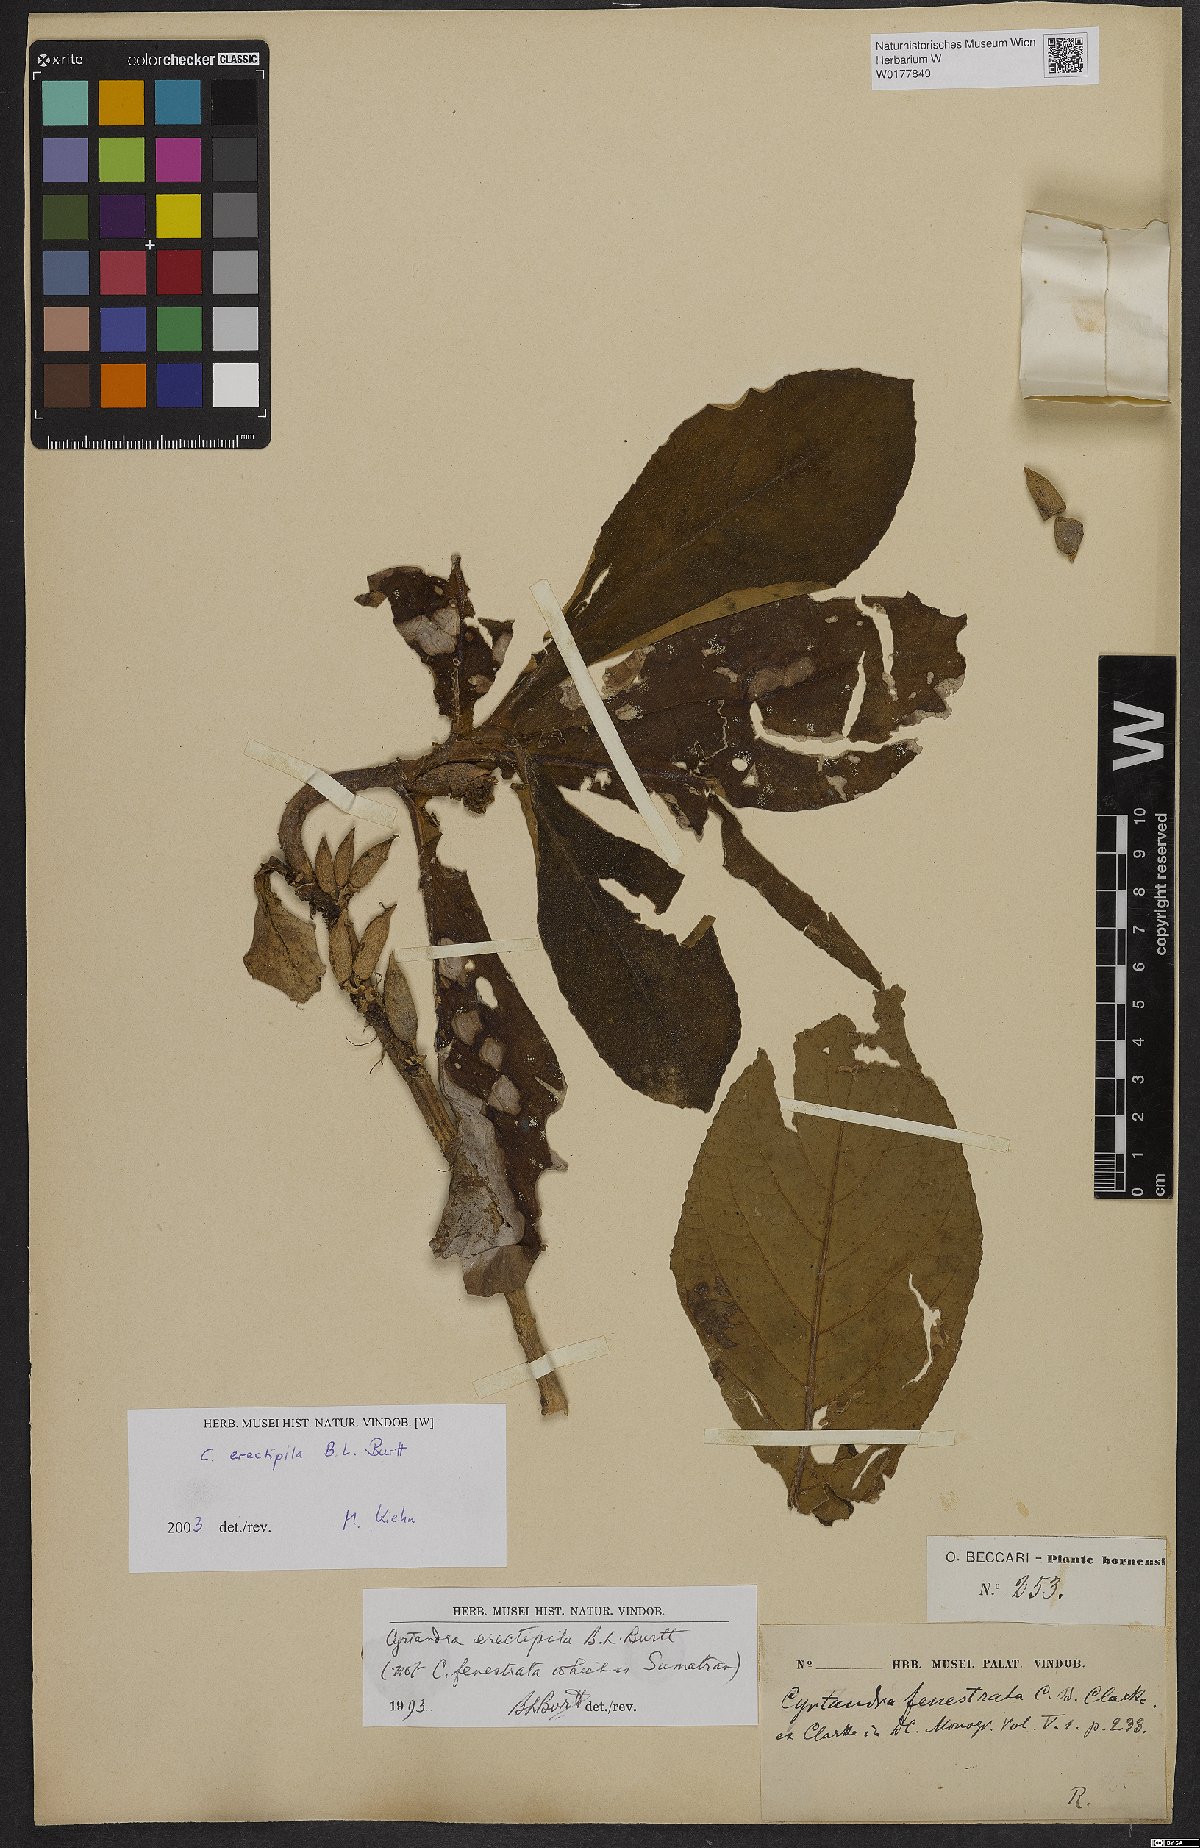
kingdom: Plantae
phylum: Tracheophyta
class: Magnoliopsida
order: Lamiales
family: Gesneriaceae
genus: Cyrtandra
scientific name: Cyrtandra erectipila
